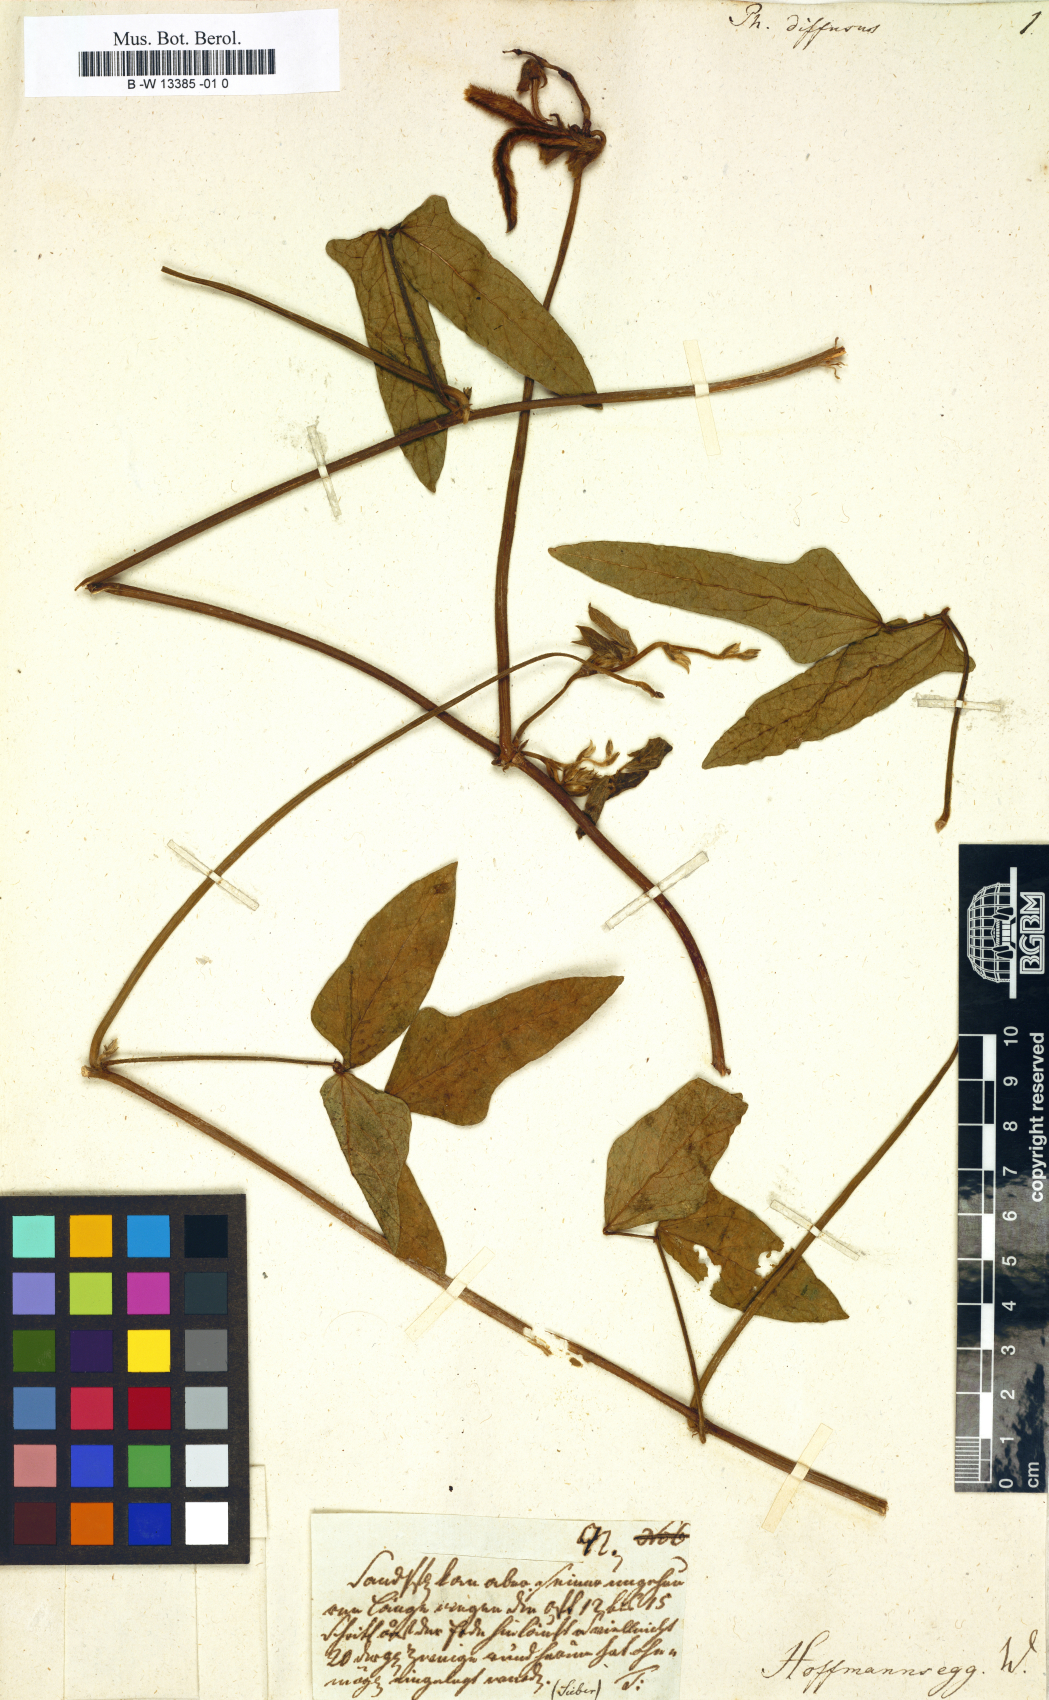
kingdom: Plantae
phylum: Tracheophyta
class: Magnoliopsida
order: Fabales
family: Fabaceae
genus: Vigna
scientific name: Vigna longifolia
